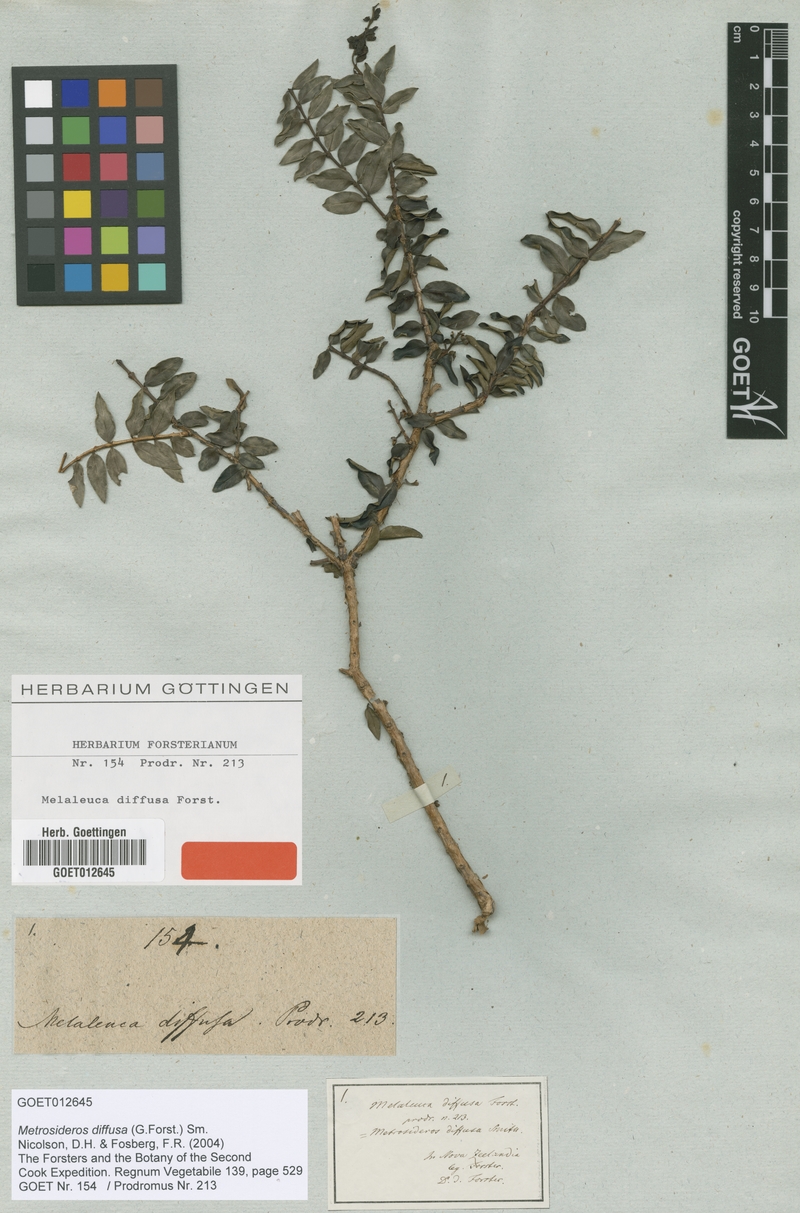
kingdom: Plantae
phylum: Tracheophyta
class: Magnoliopsida
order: Myrtales
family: Myrtaceae
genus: Metrosideros
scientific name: Metrosideros diffusa
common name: Small ratavine
